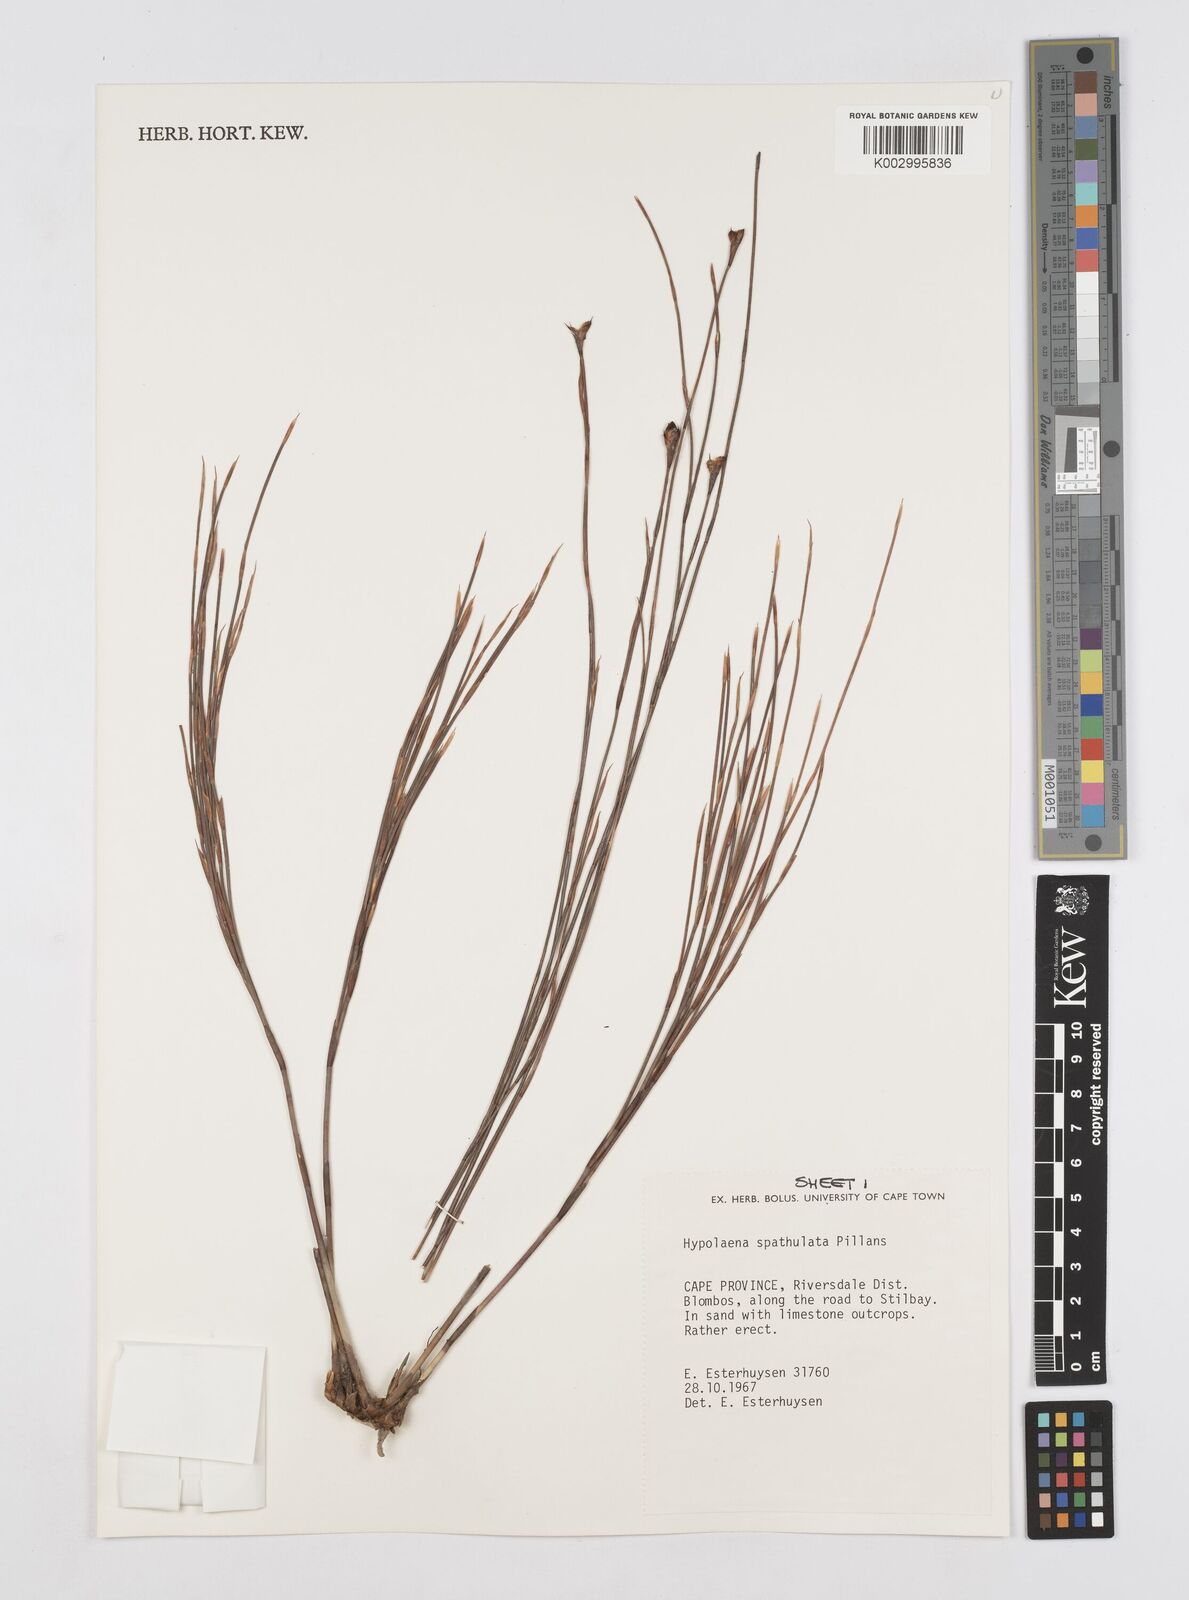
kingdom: Plantae
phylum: Tracheophyta
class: Liliopsida
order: Poales
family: Restionaceae
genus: Mastersiella
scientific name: Mastersiella spathulata
